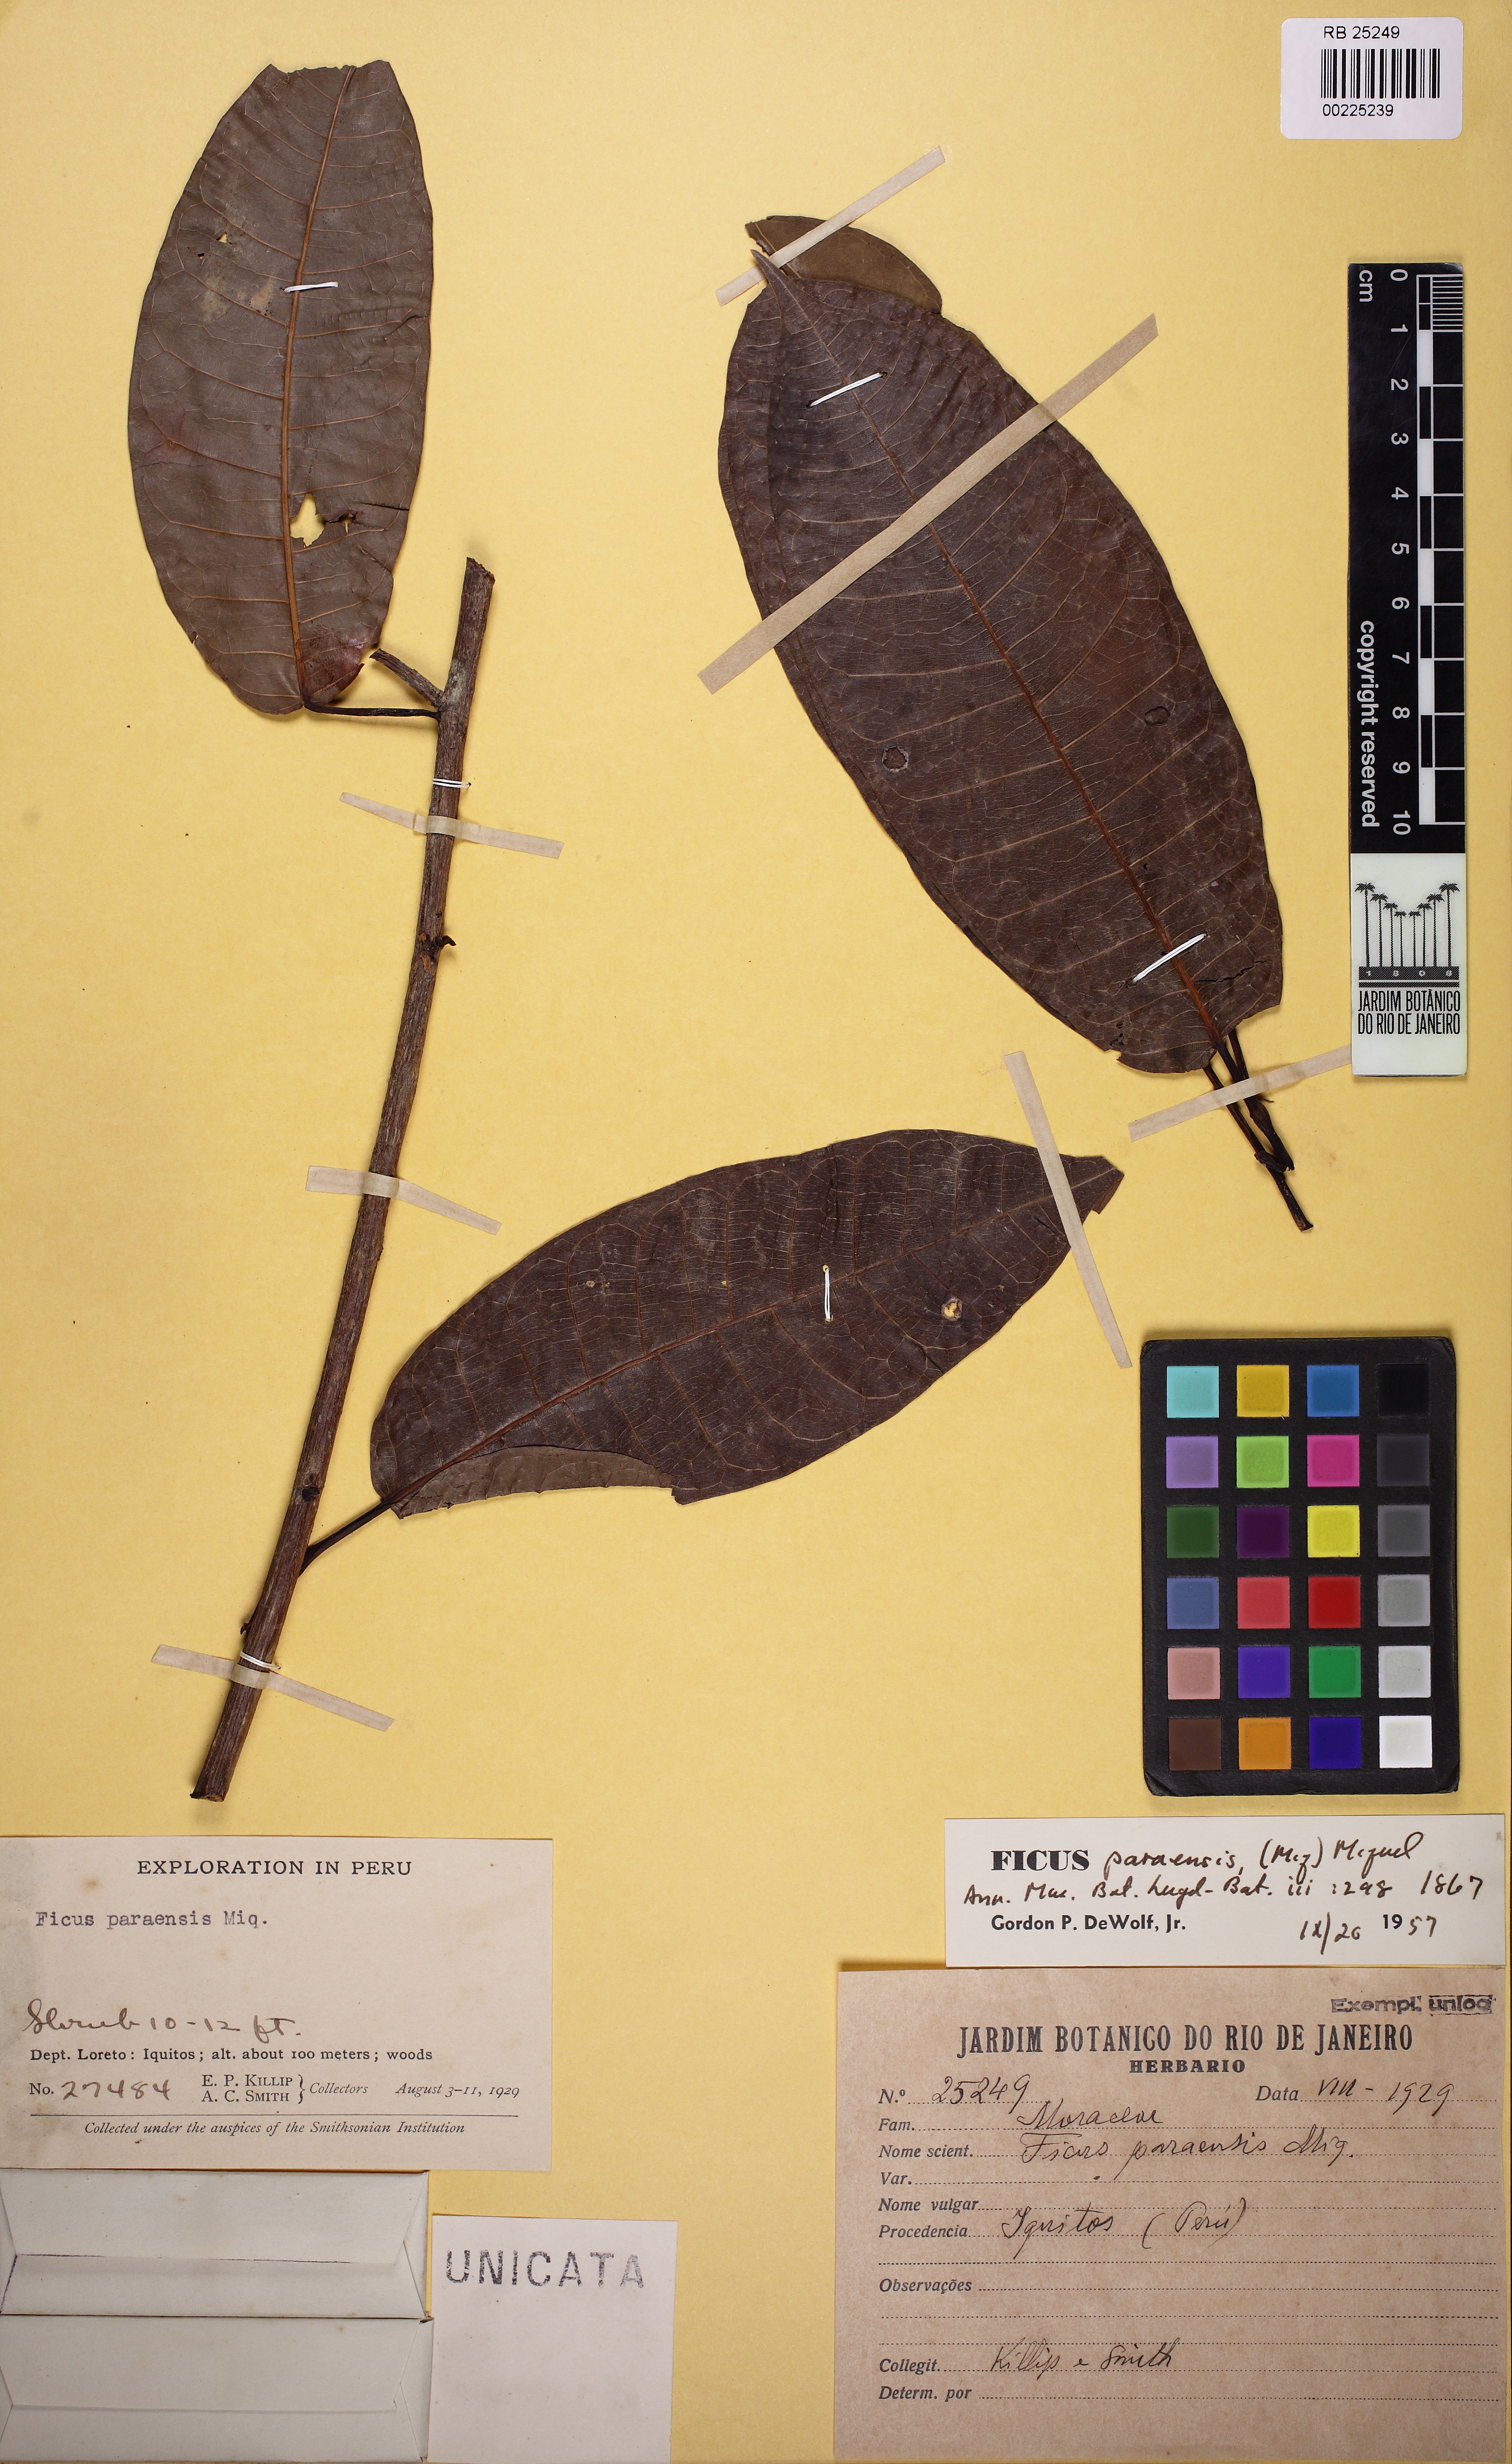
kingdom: Plantae
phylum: Tracheophyta
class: Magnoliopsida
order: Rosales
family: Moraceae
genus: Ficus
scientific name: Ficus paraensis
